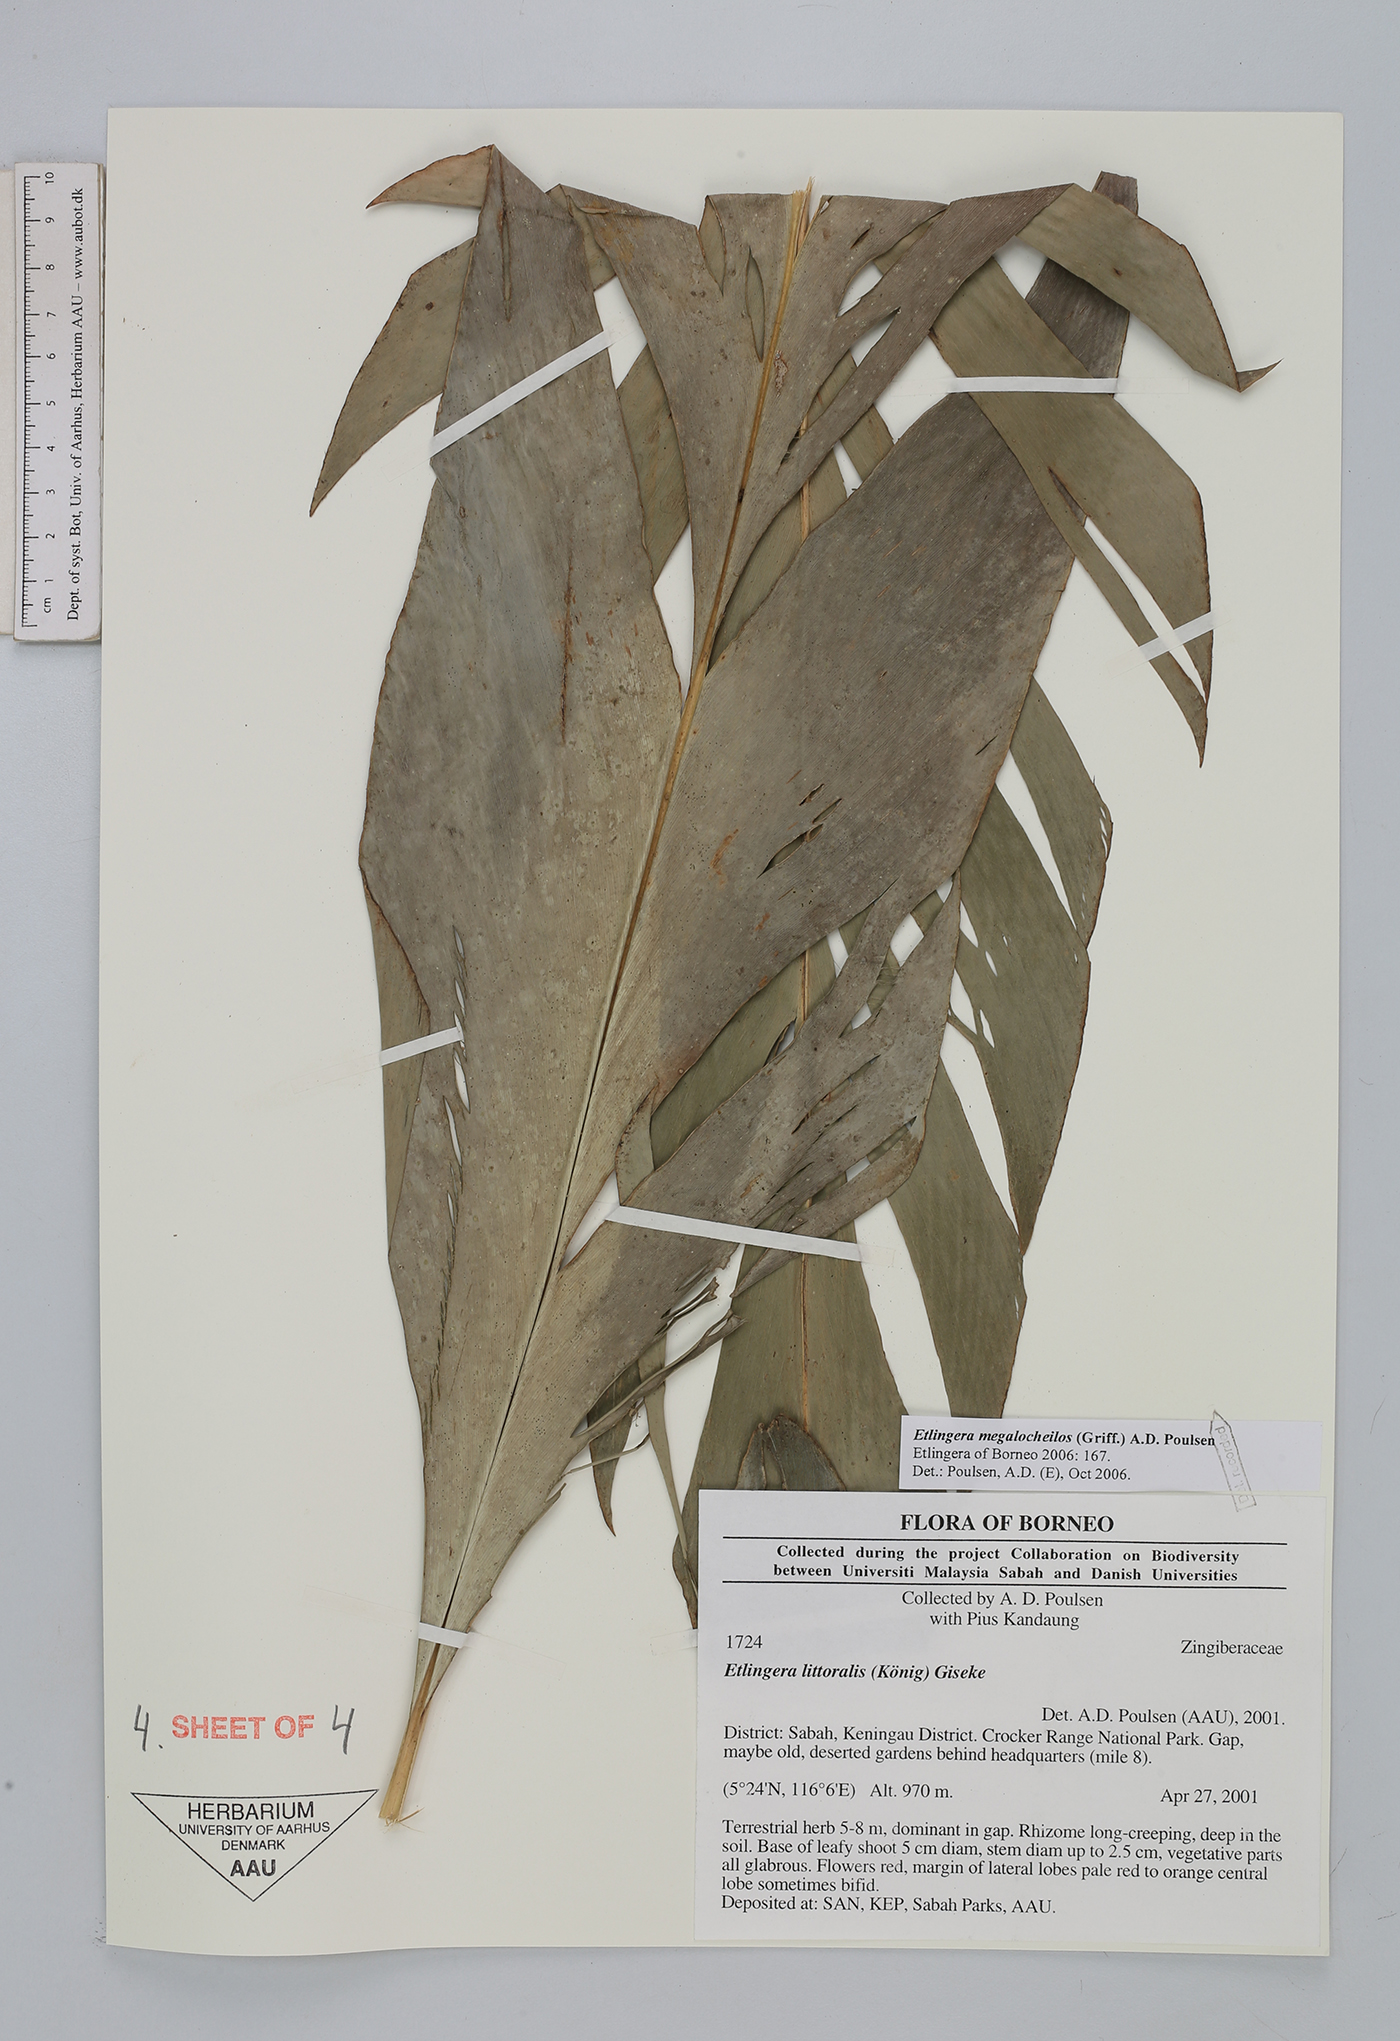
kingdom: Plantae
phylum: Tracheophyta
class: Liliopsida
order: Zingiberales
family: Zingiberaceae
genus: Etlingera
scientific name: Etlingera megalocheilos
